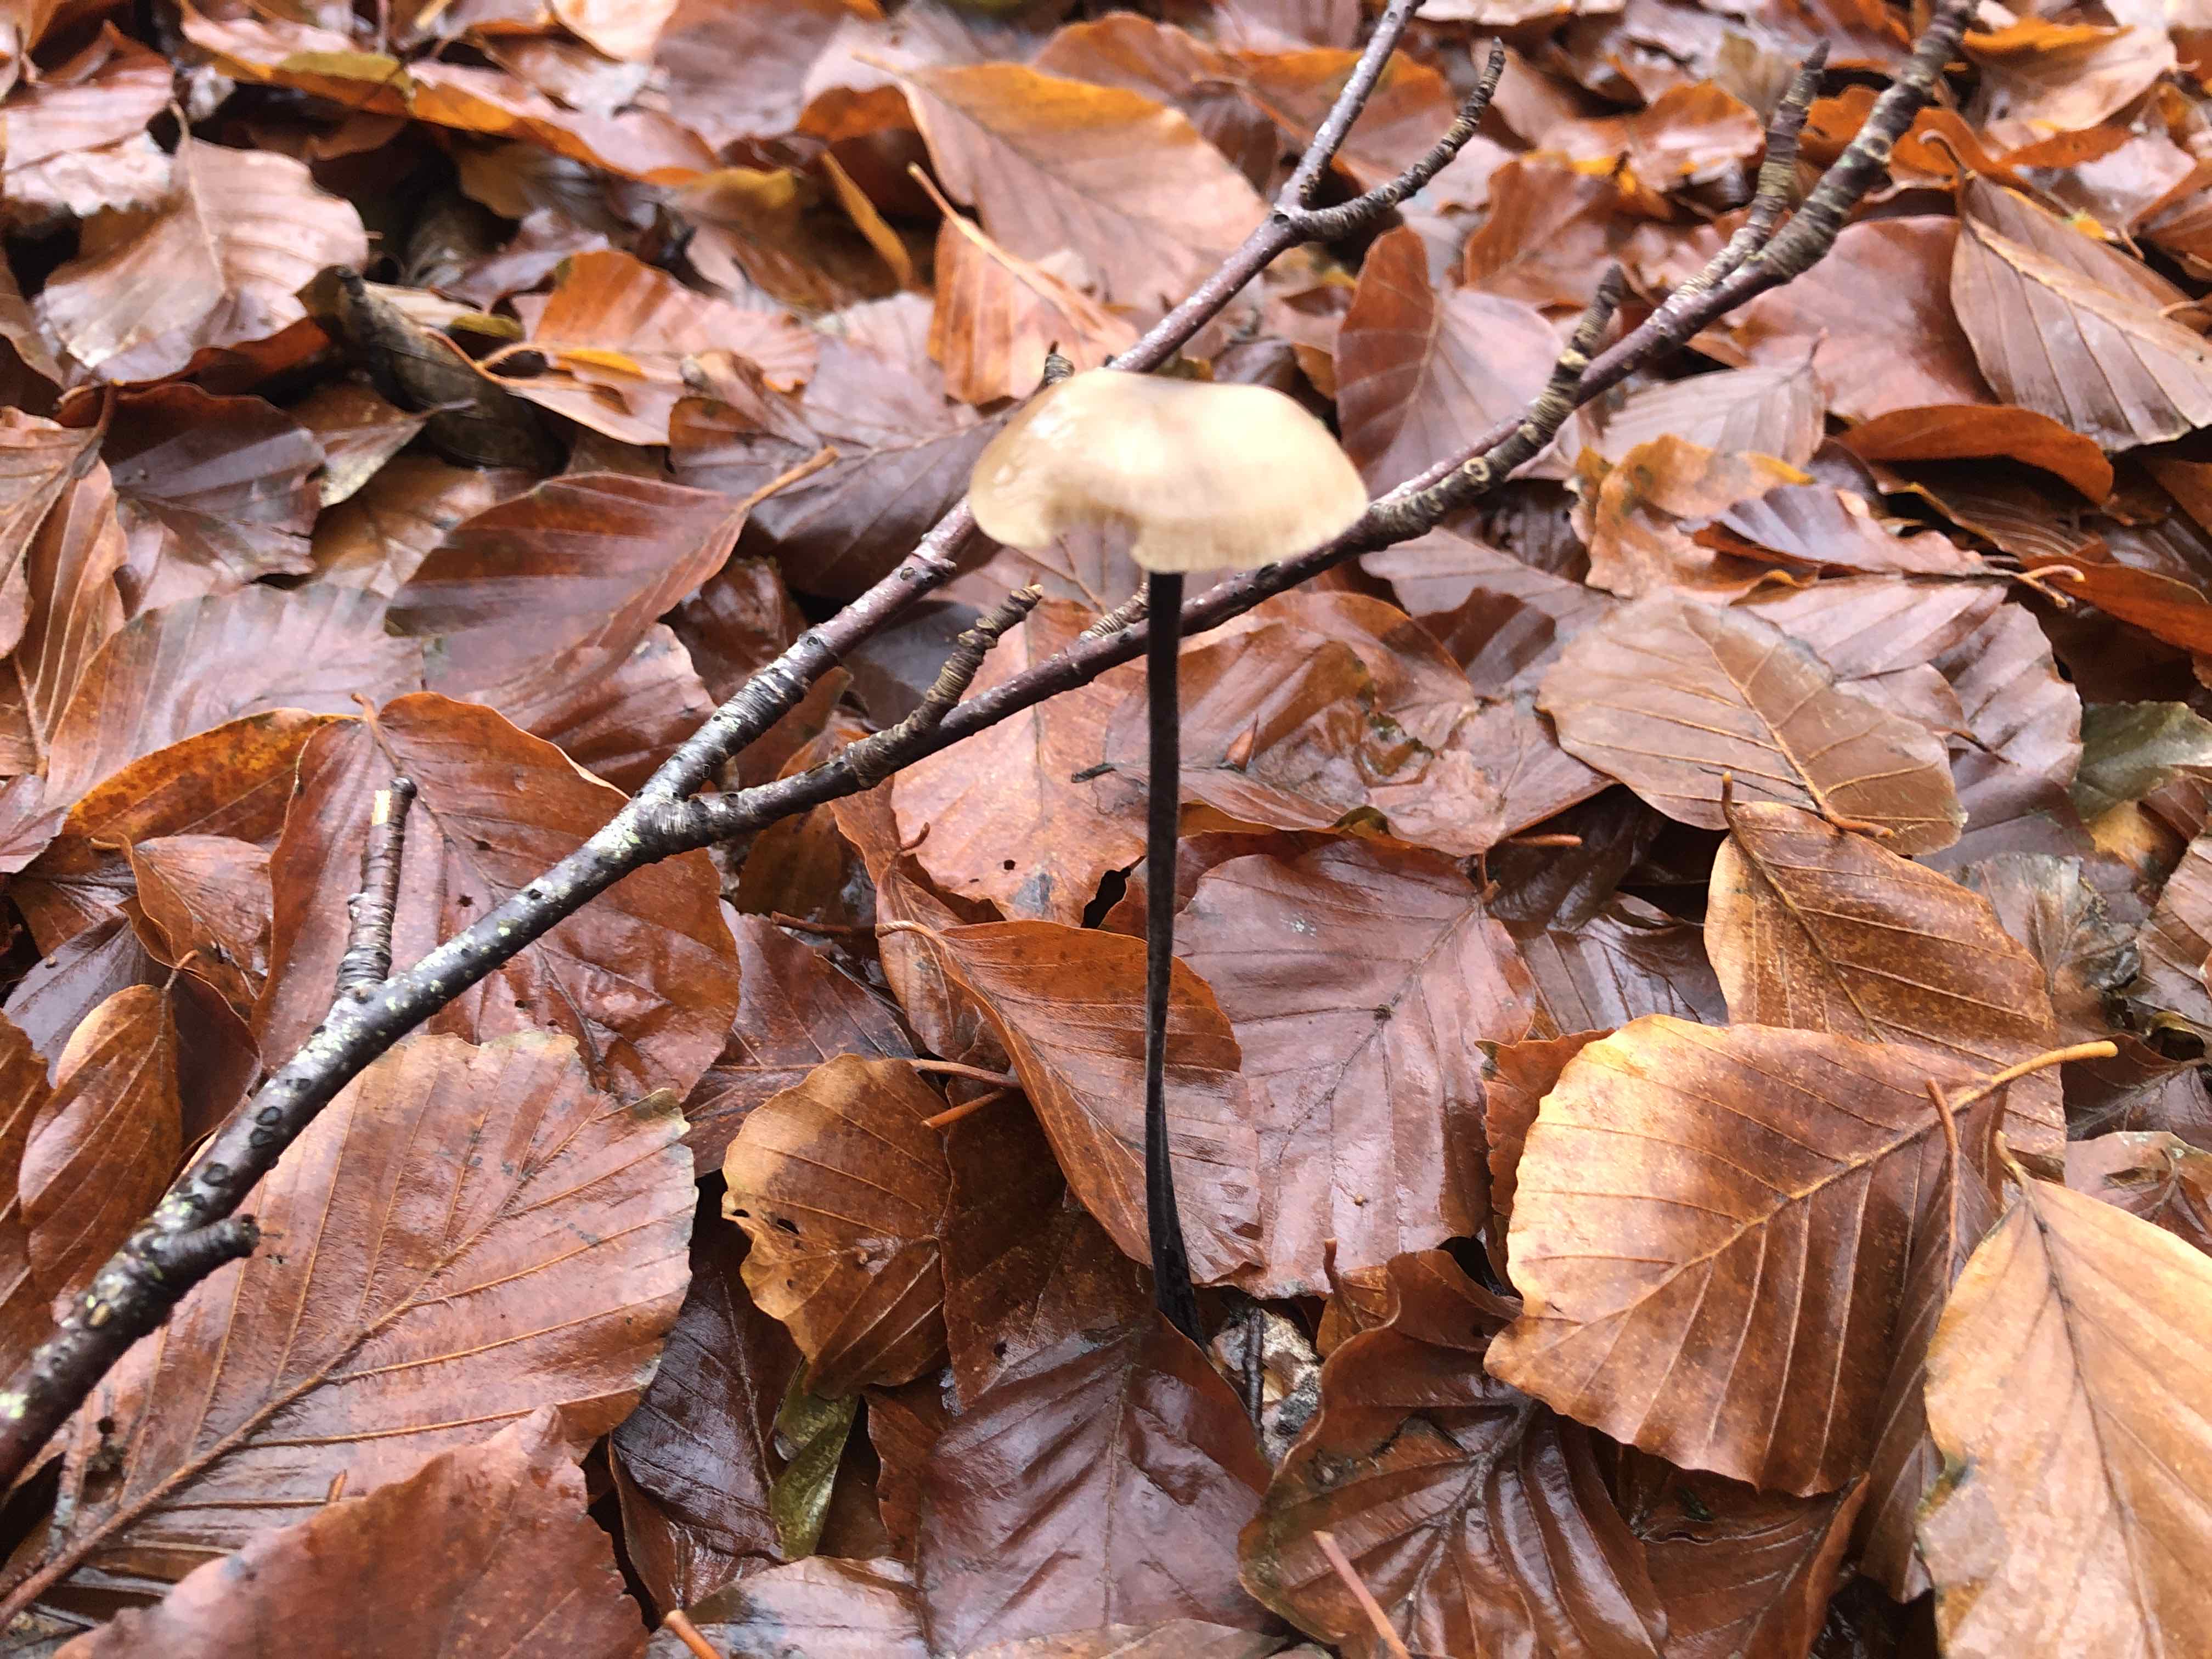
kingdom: Fungi
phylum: Basidiomycota
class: Agaricomycetes
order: Agaricales
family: Omphalotaceae
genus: Mycetinis
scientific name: Mycetinis alliaceus
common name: stor løghat
